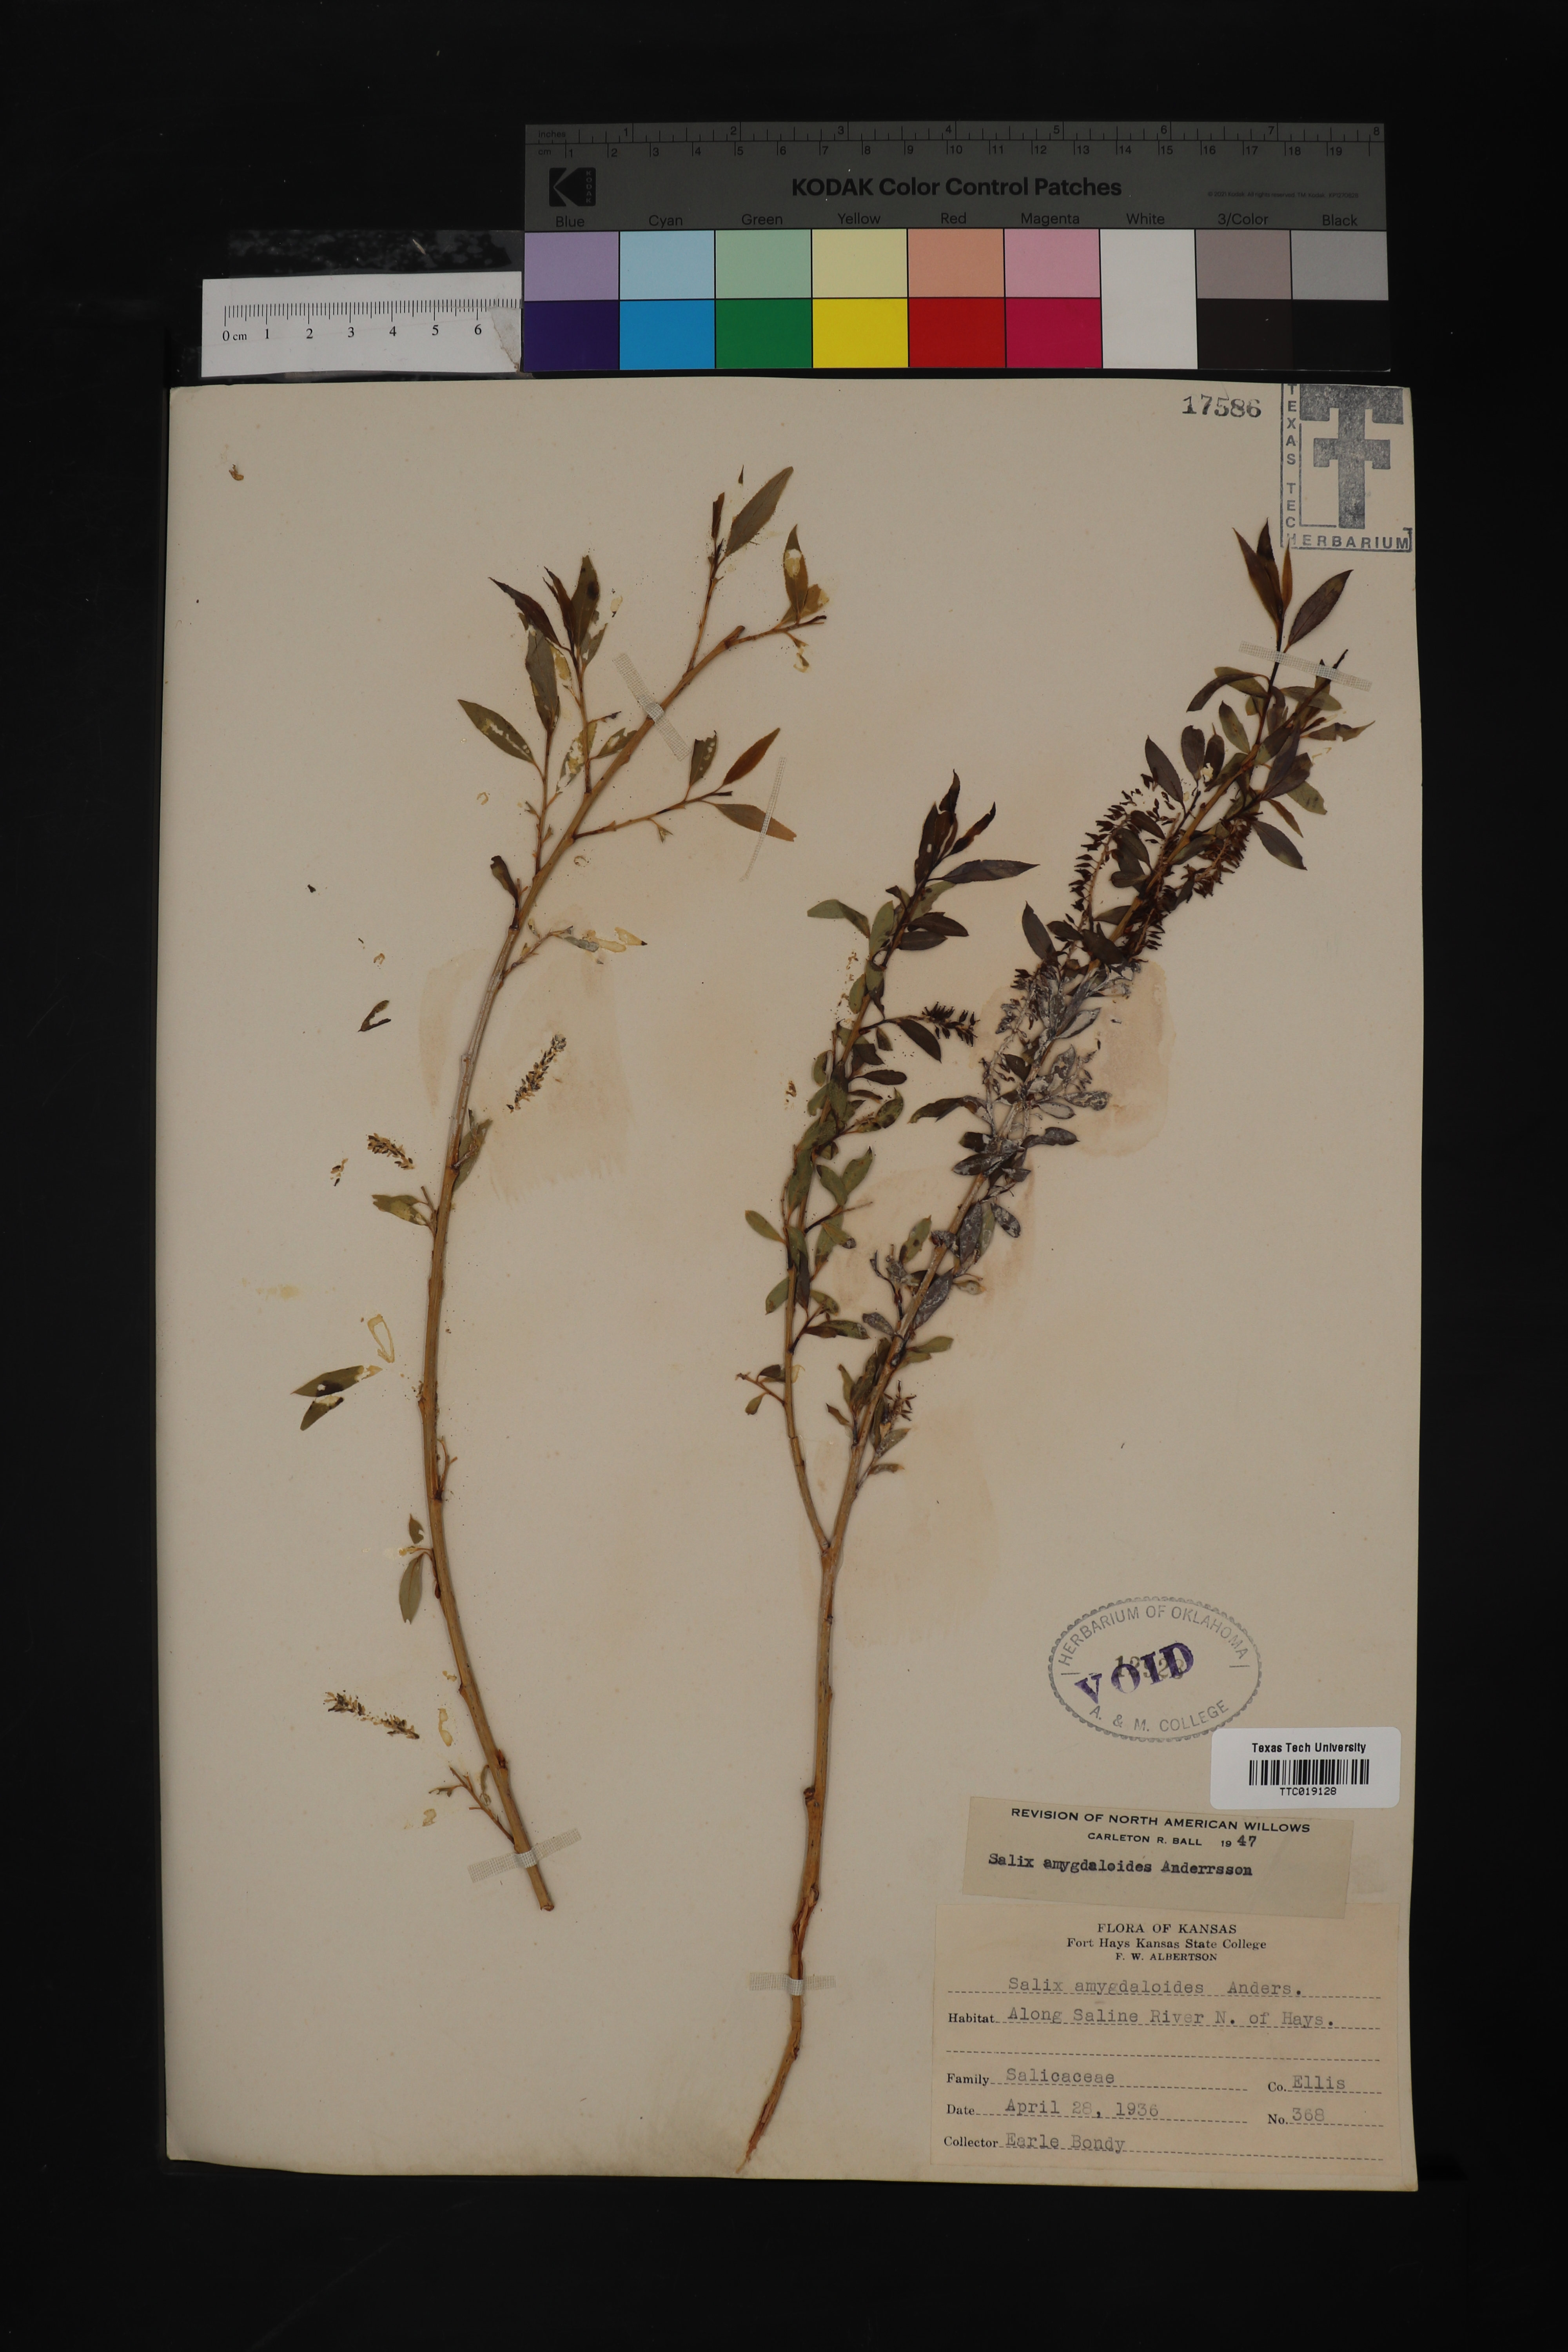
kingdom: Plantae
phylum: Tracheophyta
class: Magnoliopsida
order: Malpighiales
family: Salicaceae
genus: Salix
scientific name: Salix amygdaloides
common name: Peach leaf willow
